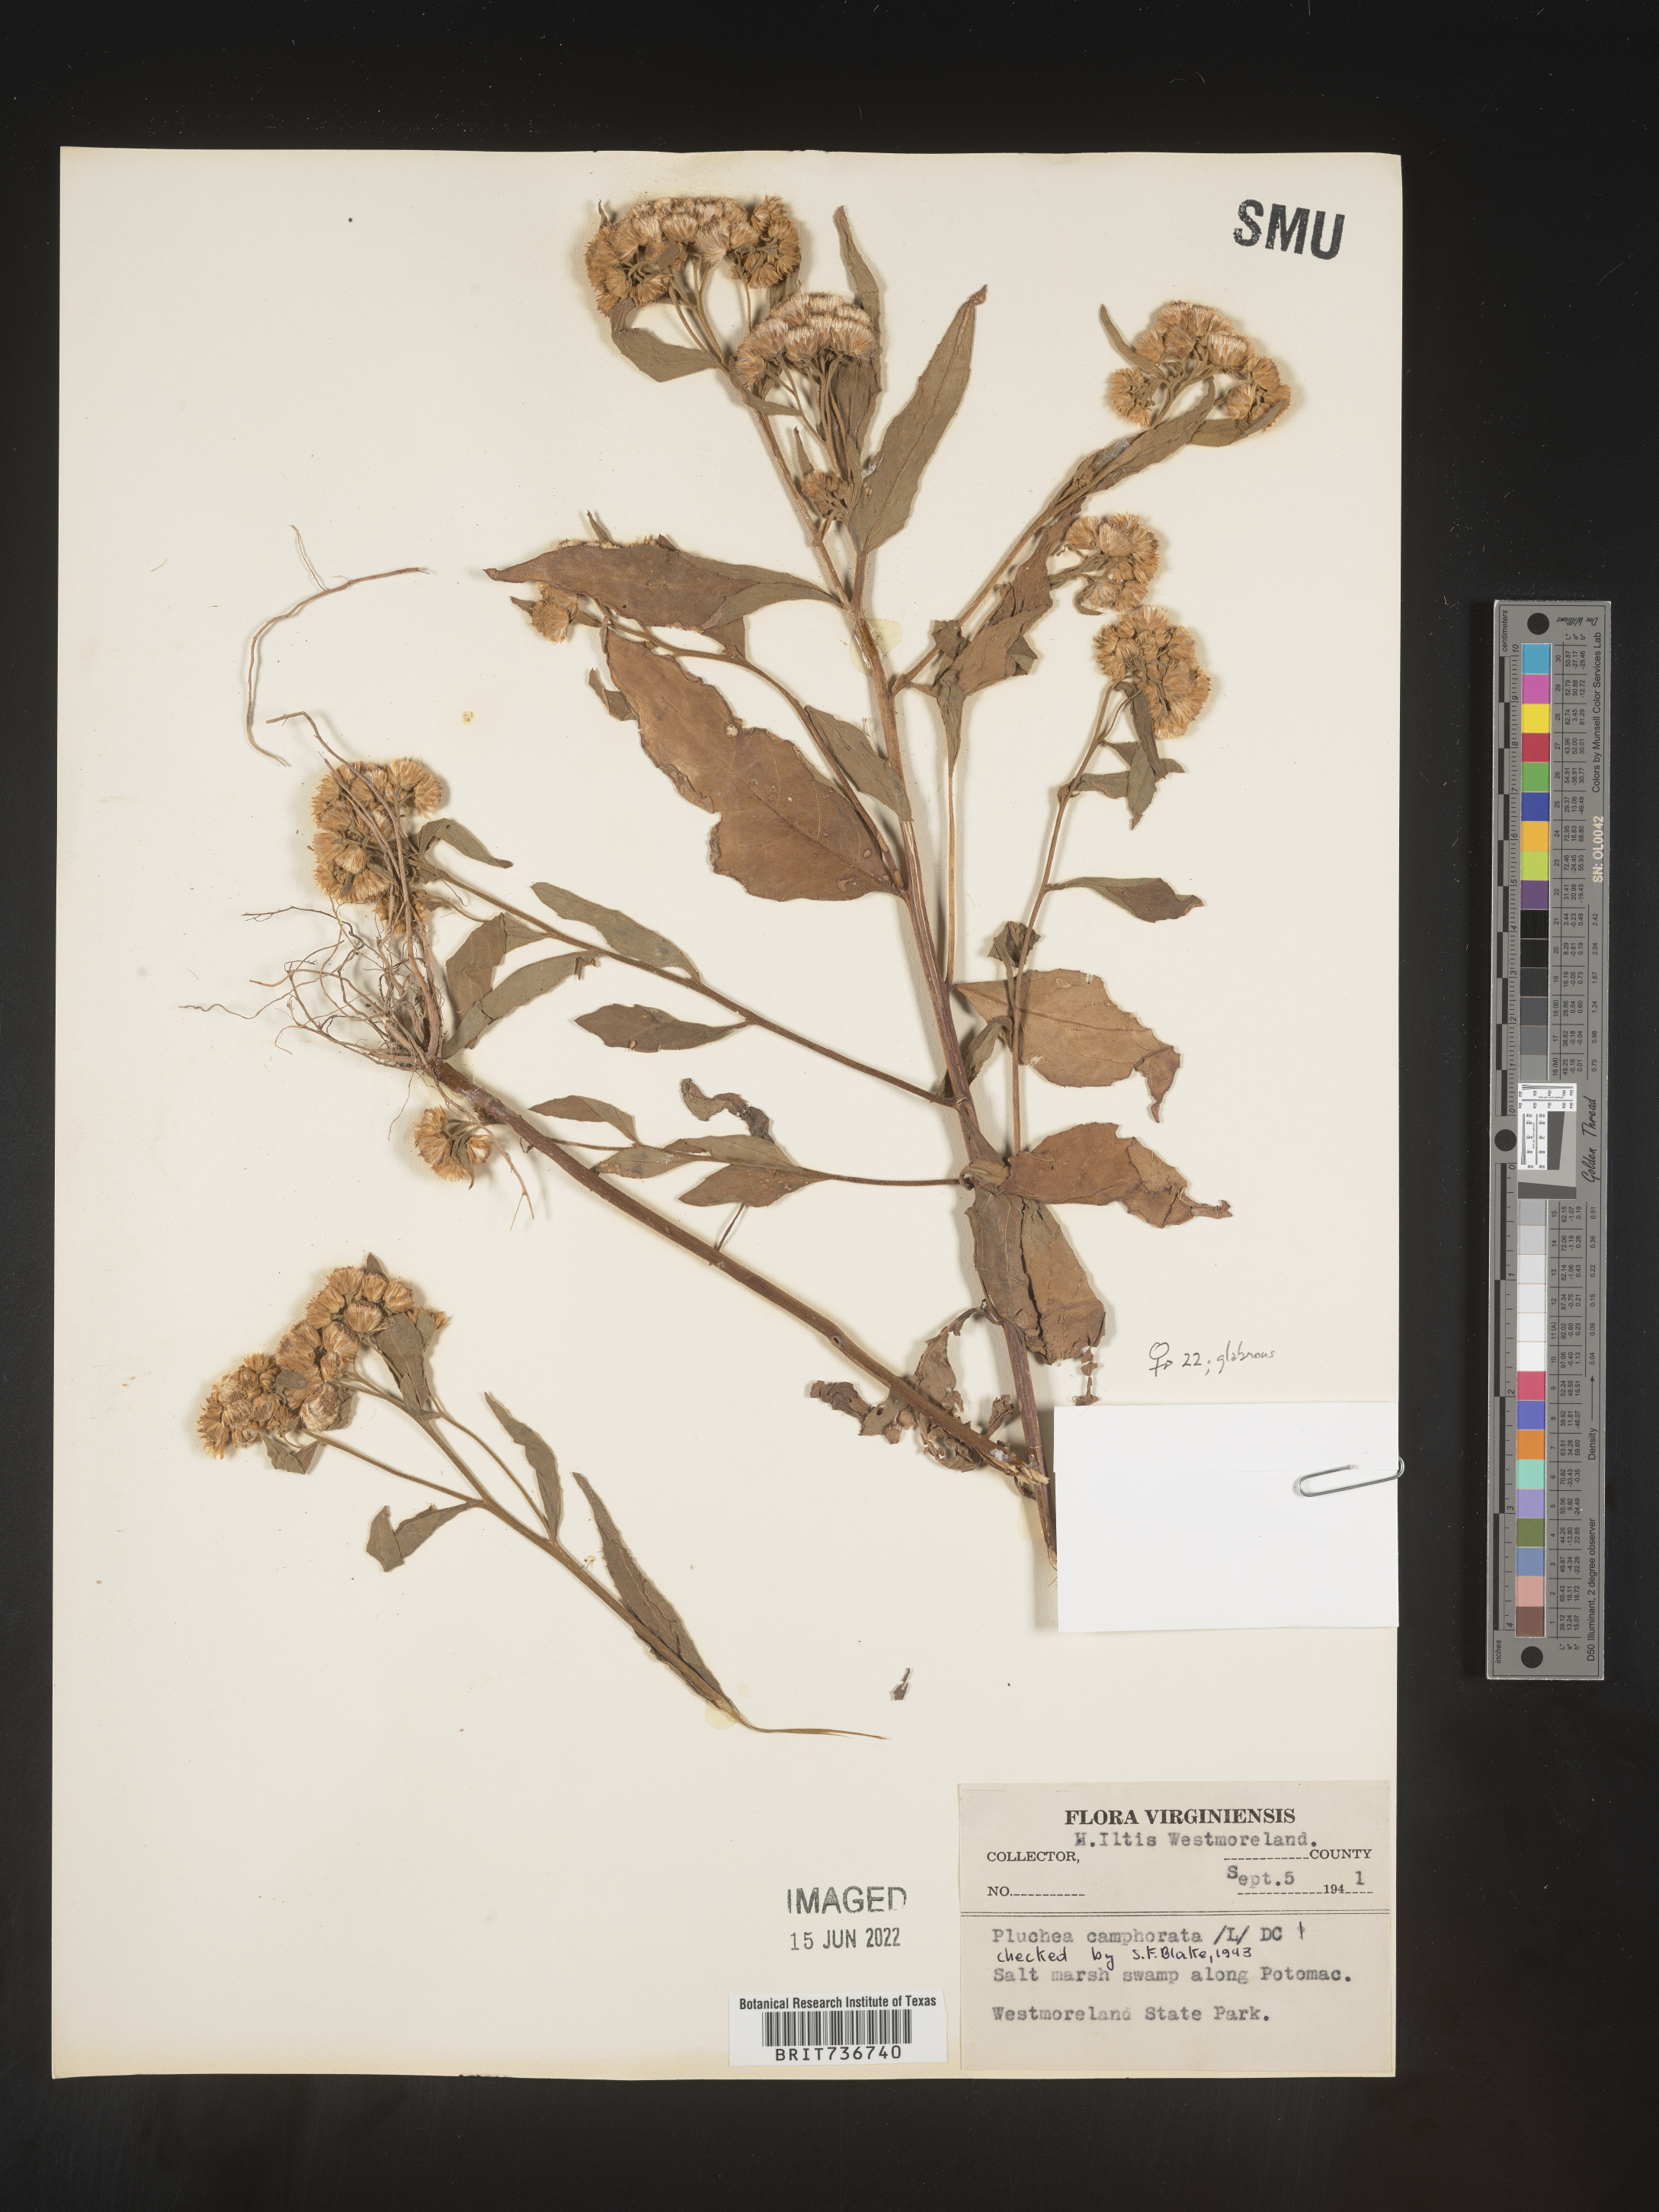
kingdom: Plantae
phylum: Tracheophyta
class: Magnoliopsida
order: Asterales
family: Asteraceae
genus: Pluchea
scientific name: Pluchea odorata
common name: Saltmarsh fleabane
